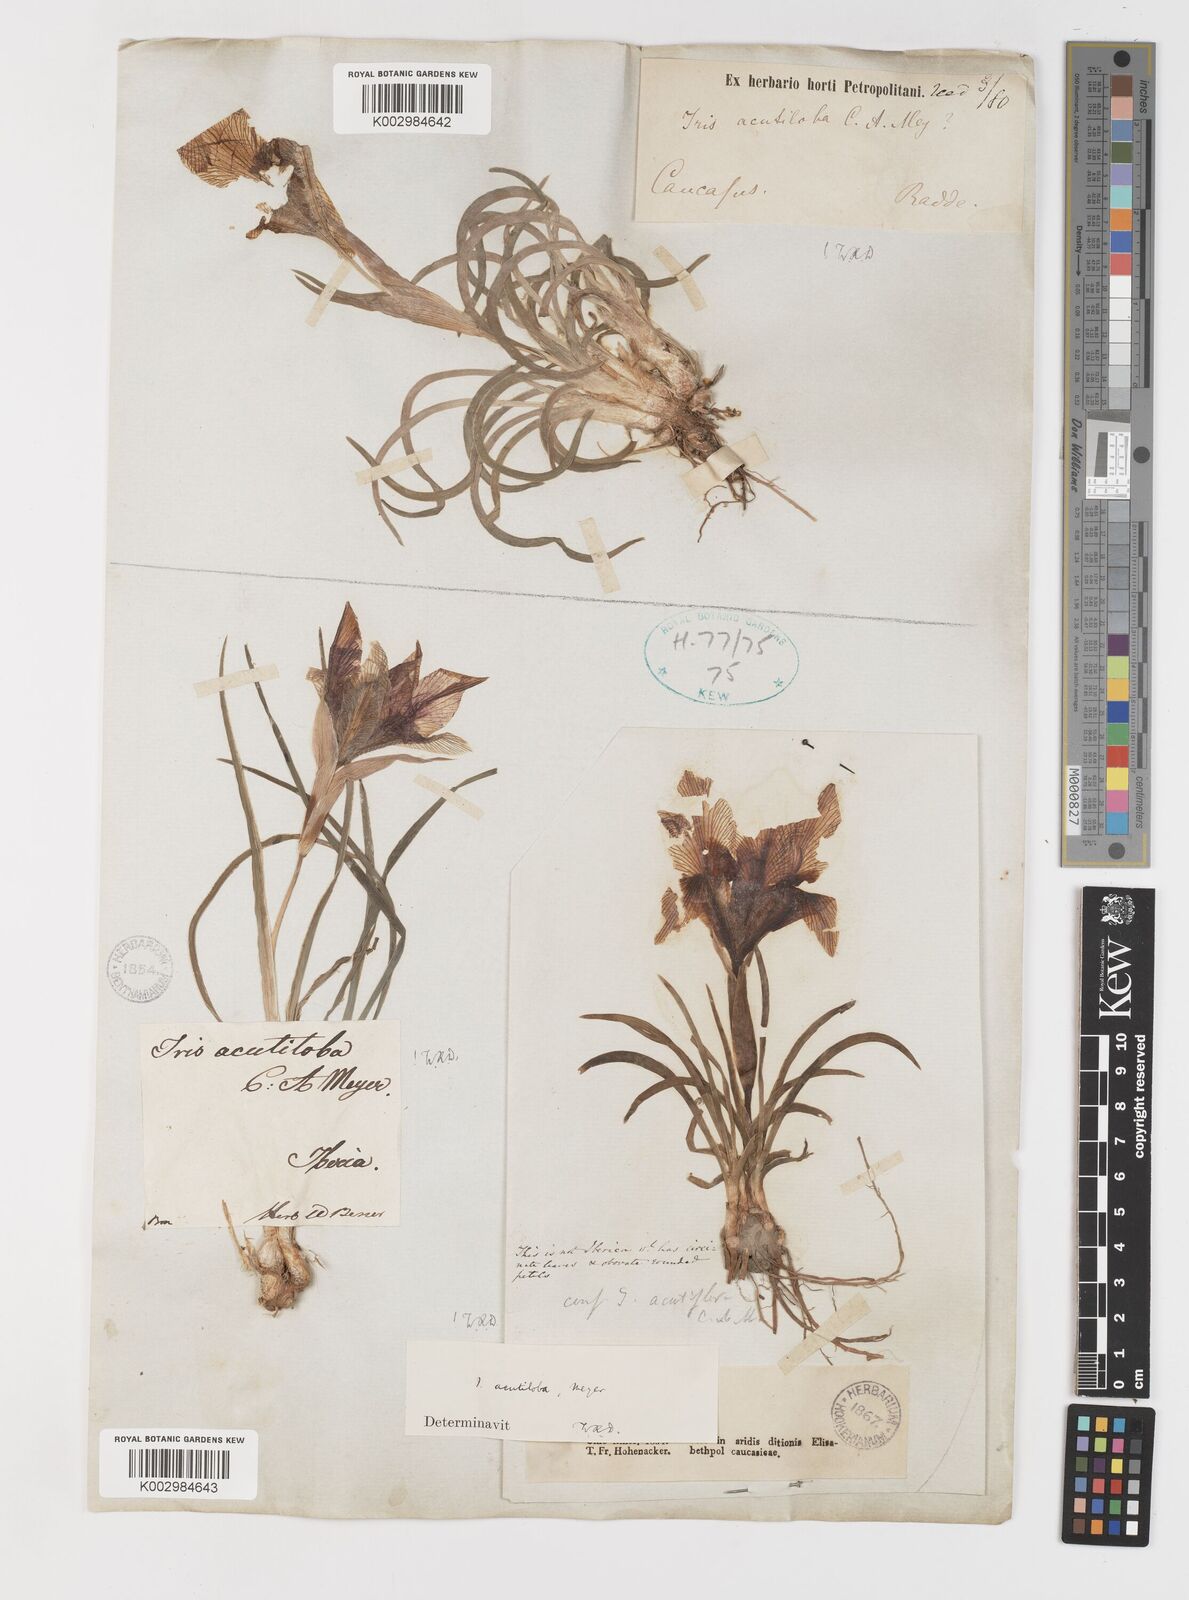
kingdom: Plantae
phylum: Tracheophyta
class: Liliopsida
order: Asparagales
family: Iridaceae
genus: Iris
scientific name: Iris acutiloba
